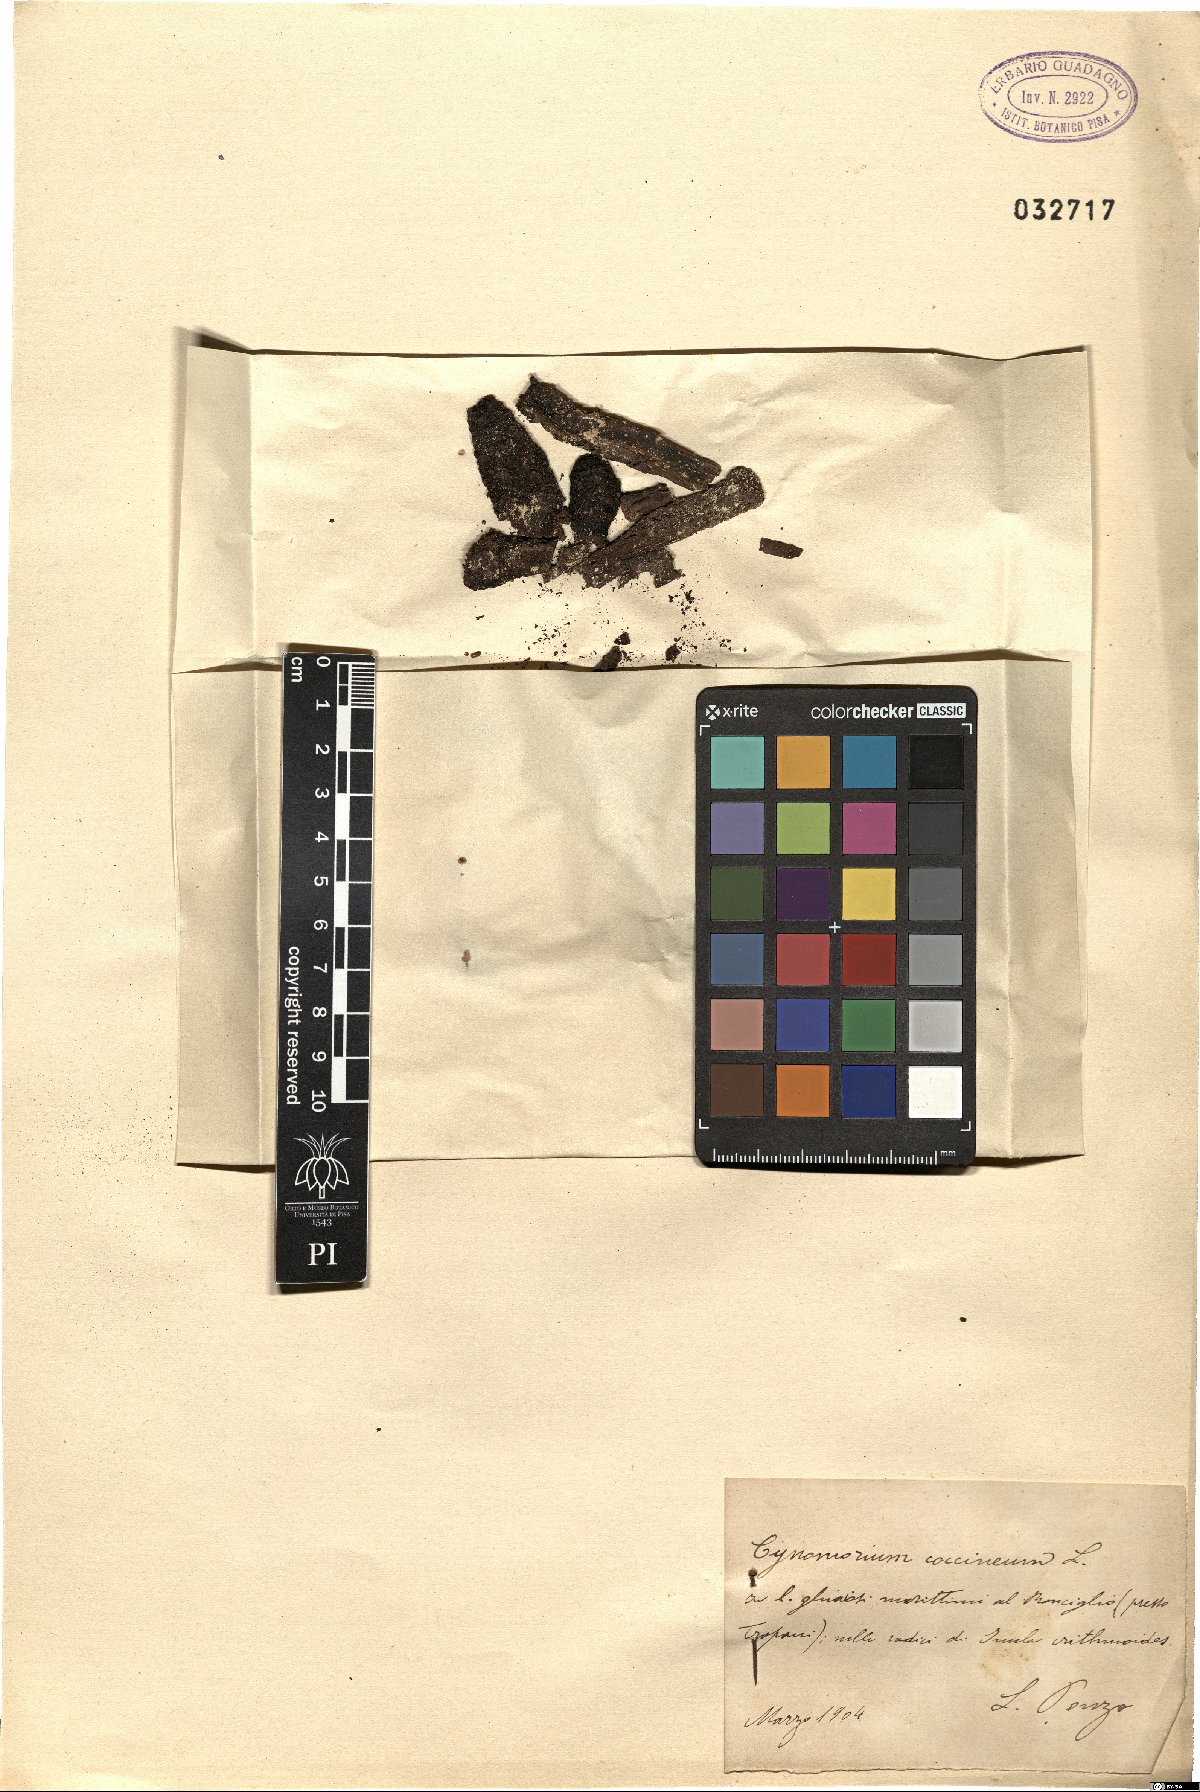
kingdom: Plantae
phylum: Tracheophyta
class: Magnoliopsida
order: Saxifragales
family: Cynomoriaceae
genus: Cynomorium
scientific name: Cynomorium coccineum
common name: Maltese-mushroom
